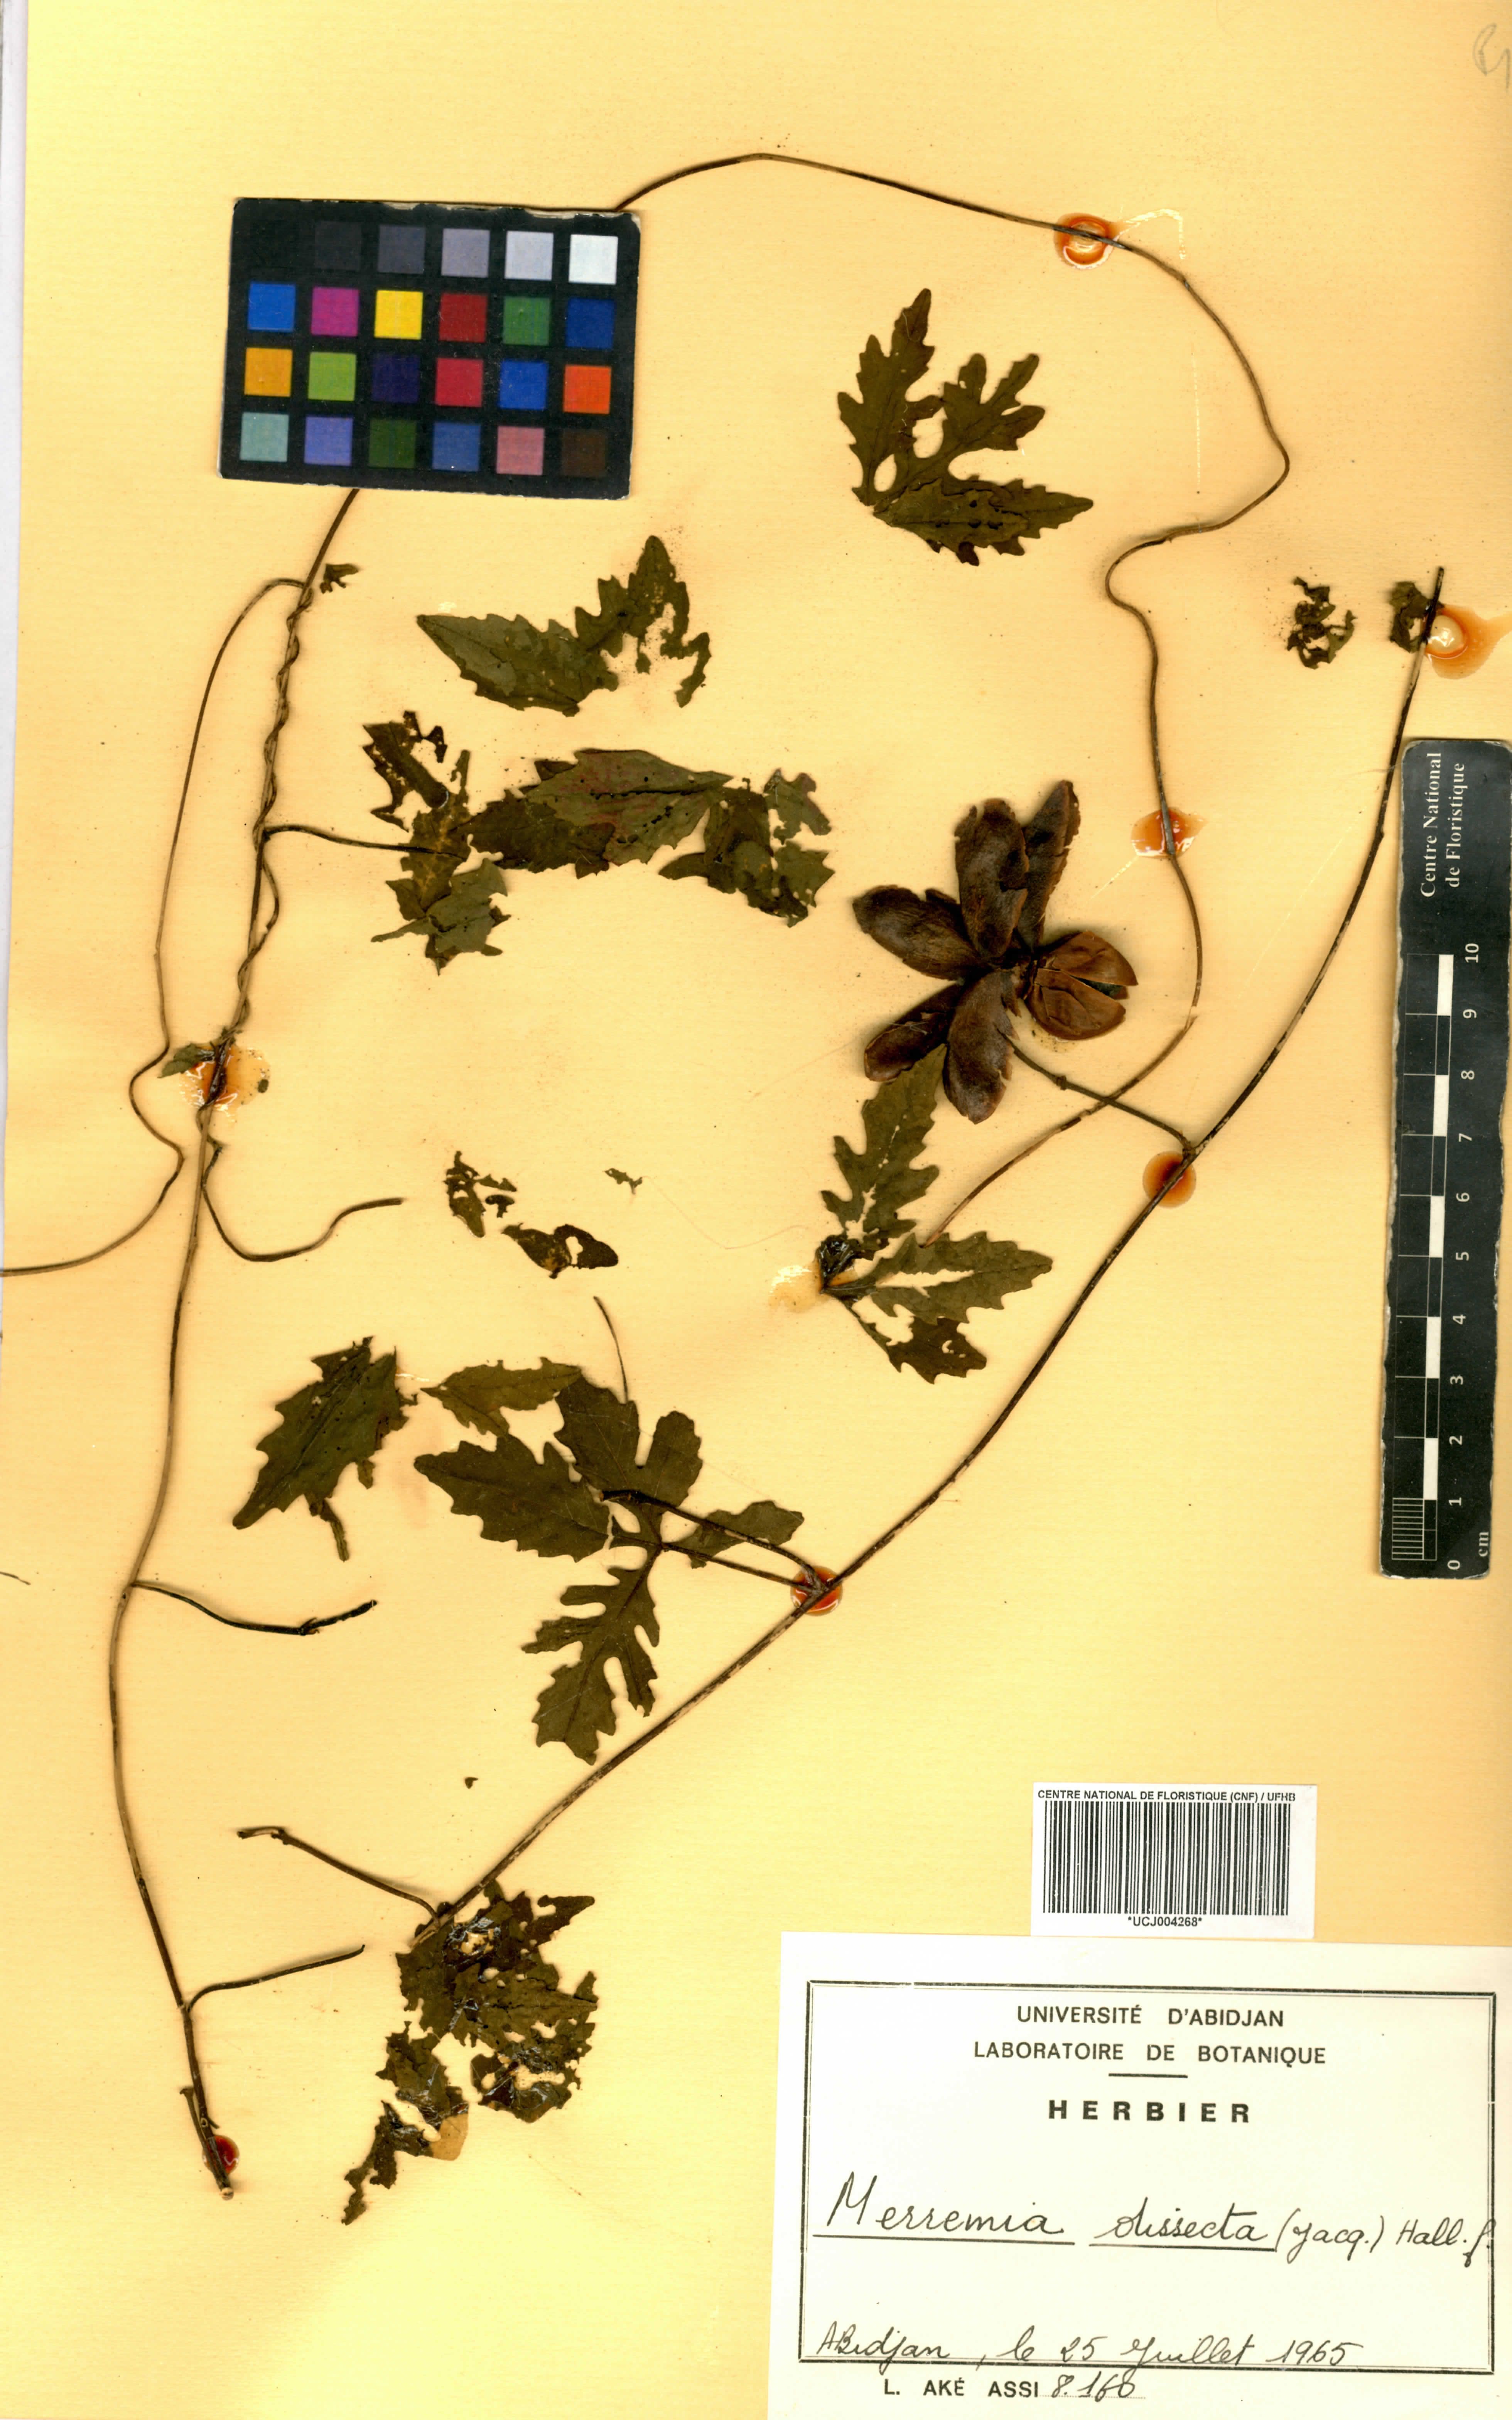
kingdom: Plantae
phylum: Tracheophyta
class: Magnoliopsida
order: Solanales
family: Convolvulaceae
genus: Distimake
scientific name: Distimake dissectus
